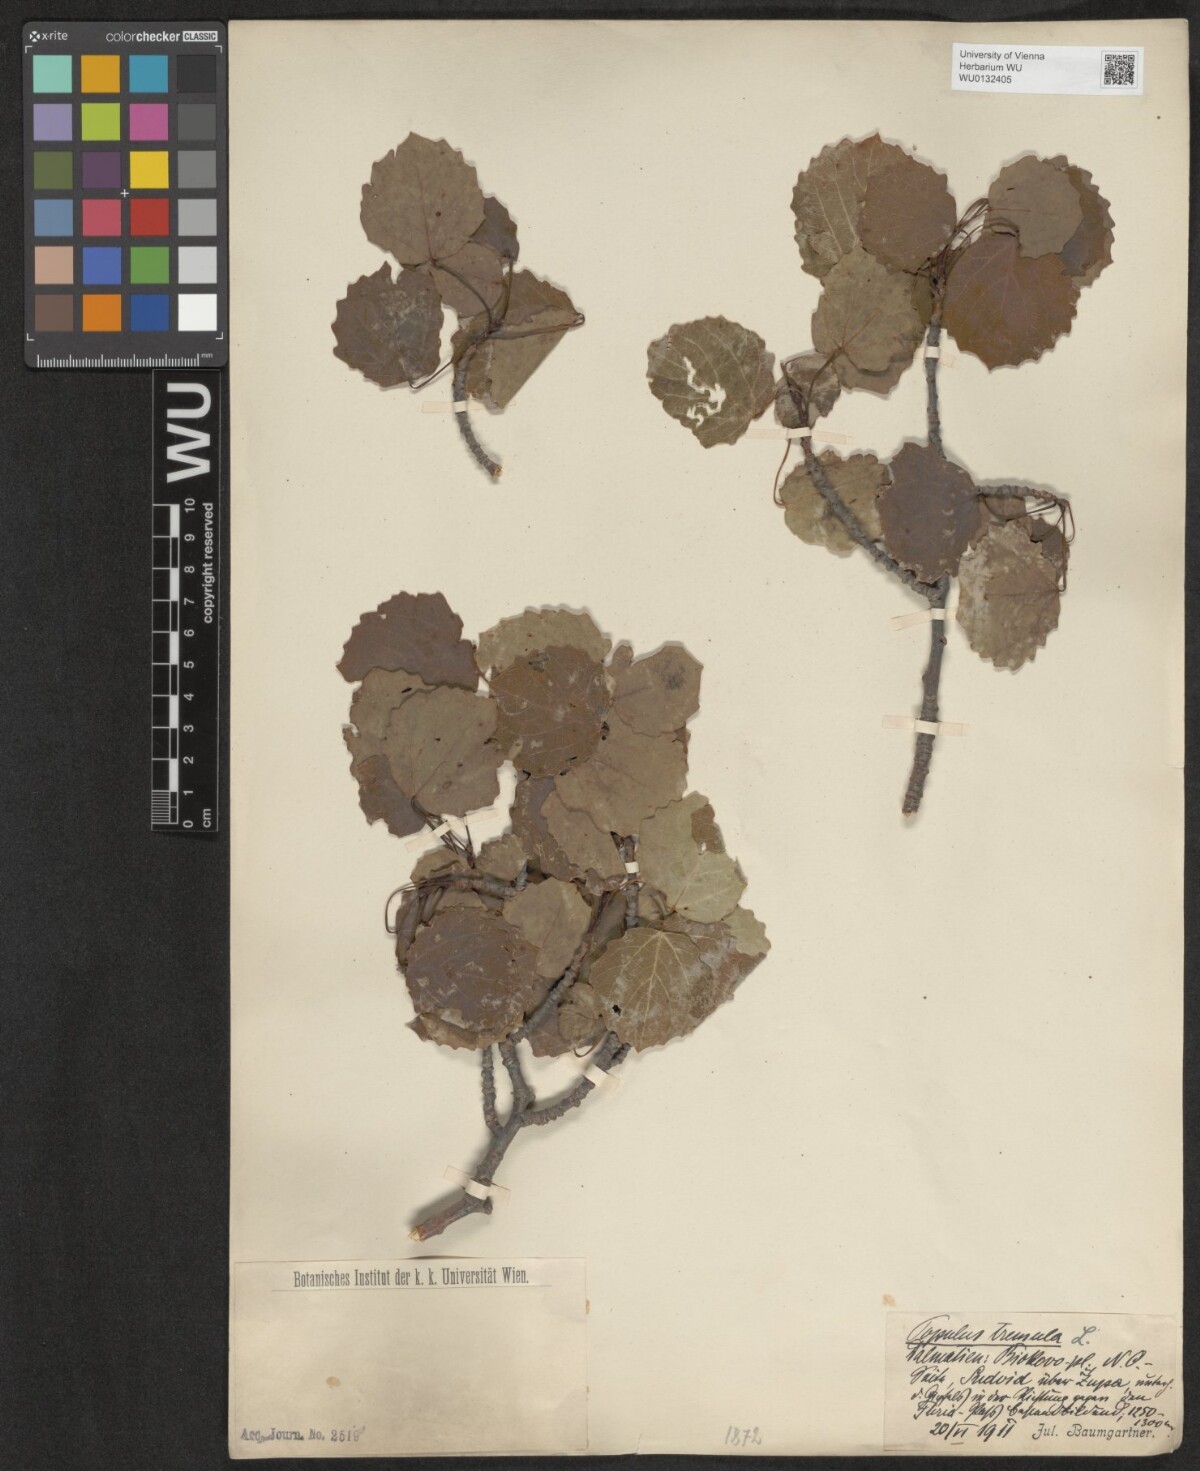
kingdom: Plantae
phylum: Tracheophyta
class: Magnoliopsida
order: Malpighiales
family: Salicaceae
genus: Populus
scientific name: Populus tremula
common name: European aspen
